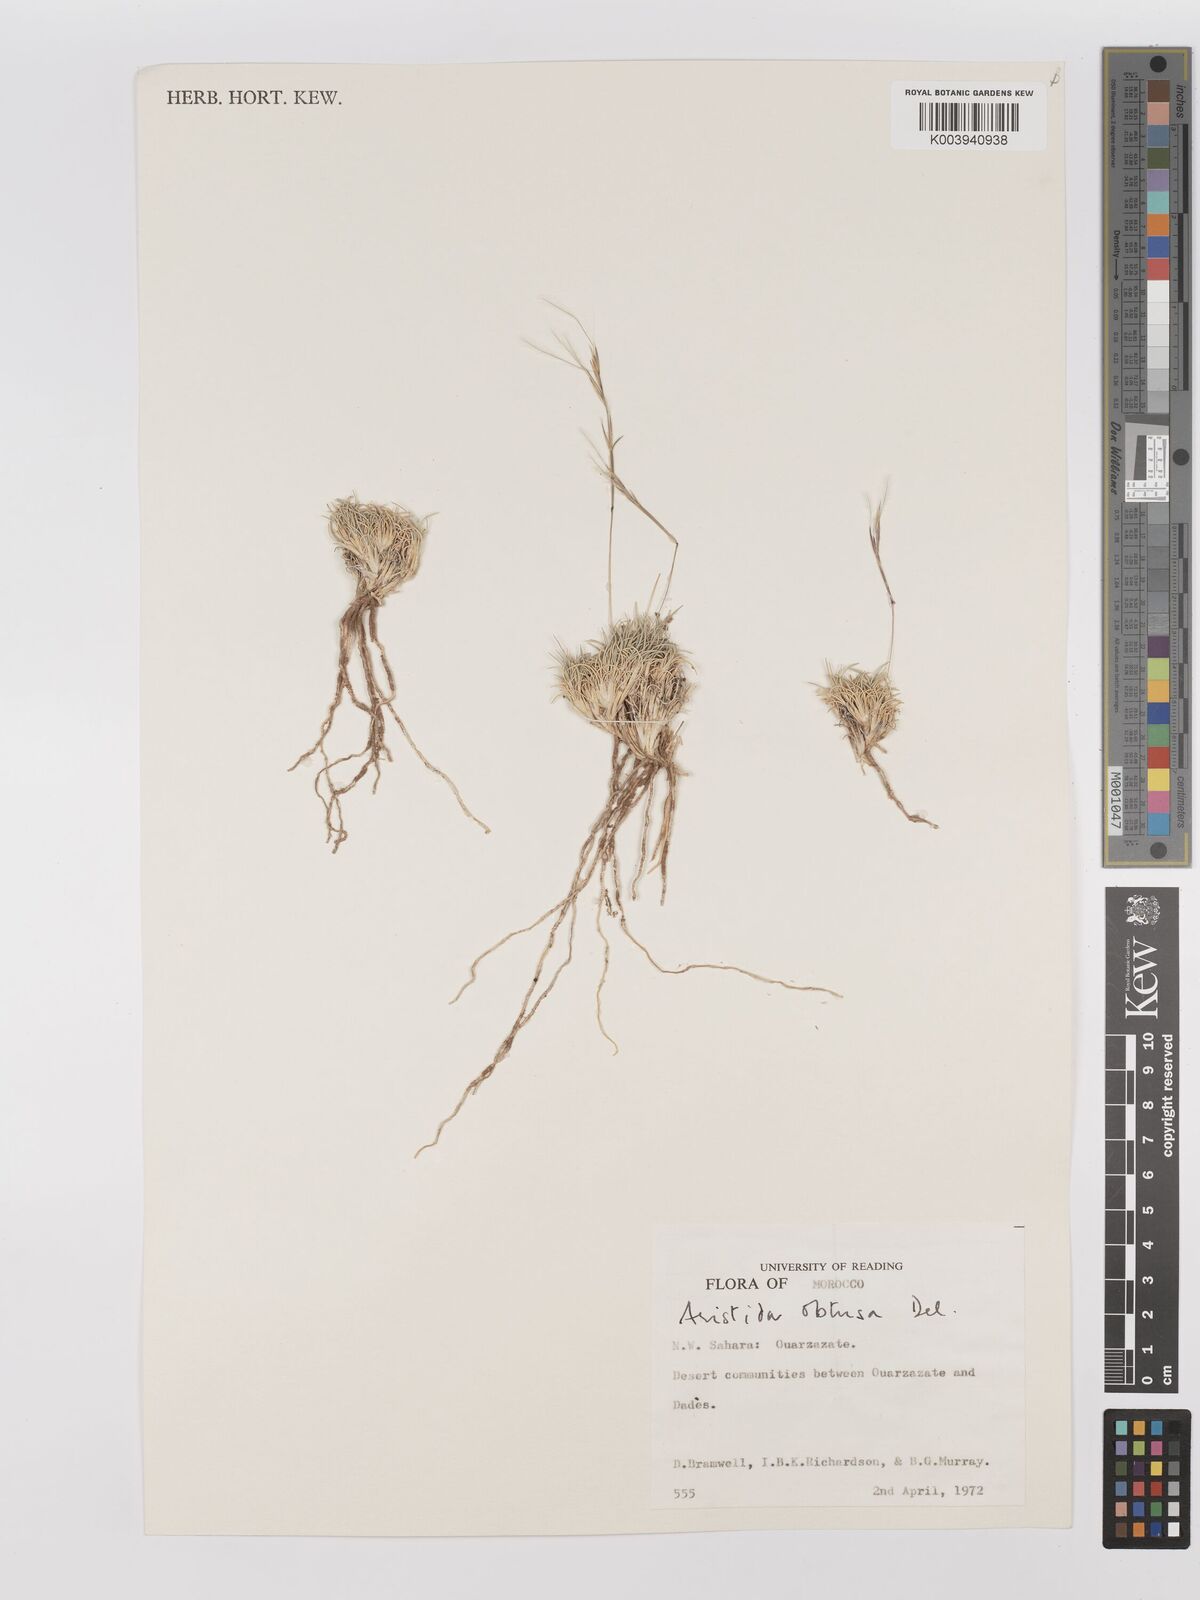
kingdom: Plantae
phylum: Tracheophyta
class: Liliopsida
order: Poales
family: Poaceae
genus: Stipagrostis
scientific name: Stipagrostis obtusa
